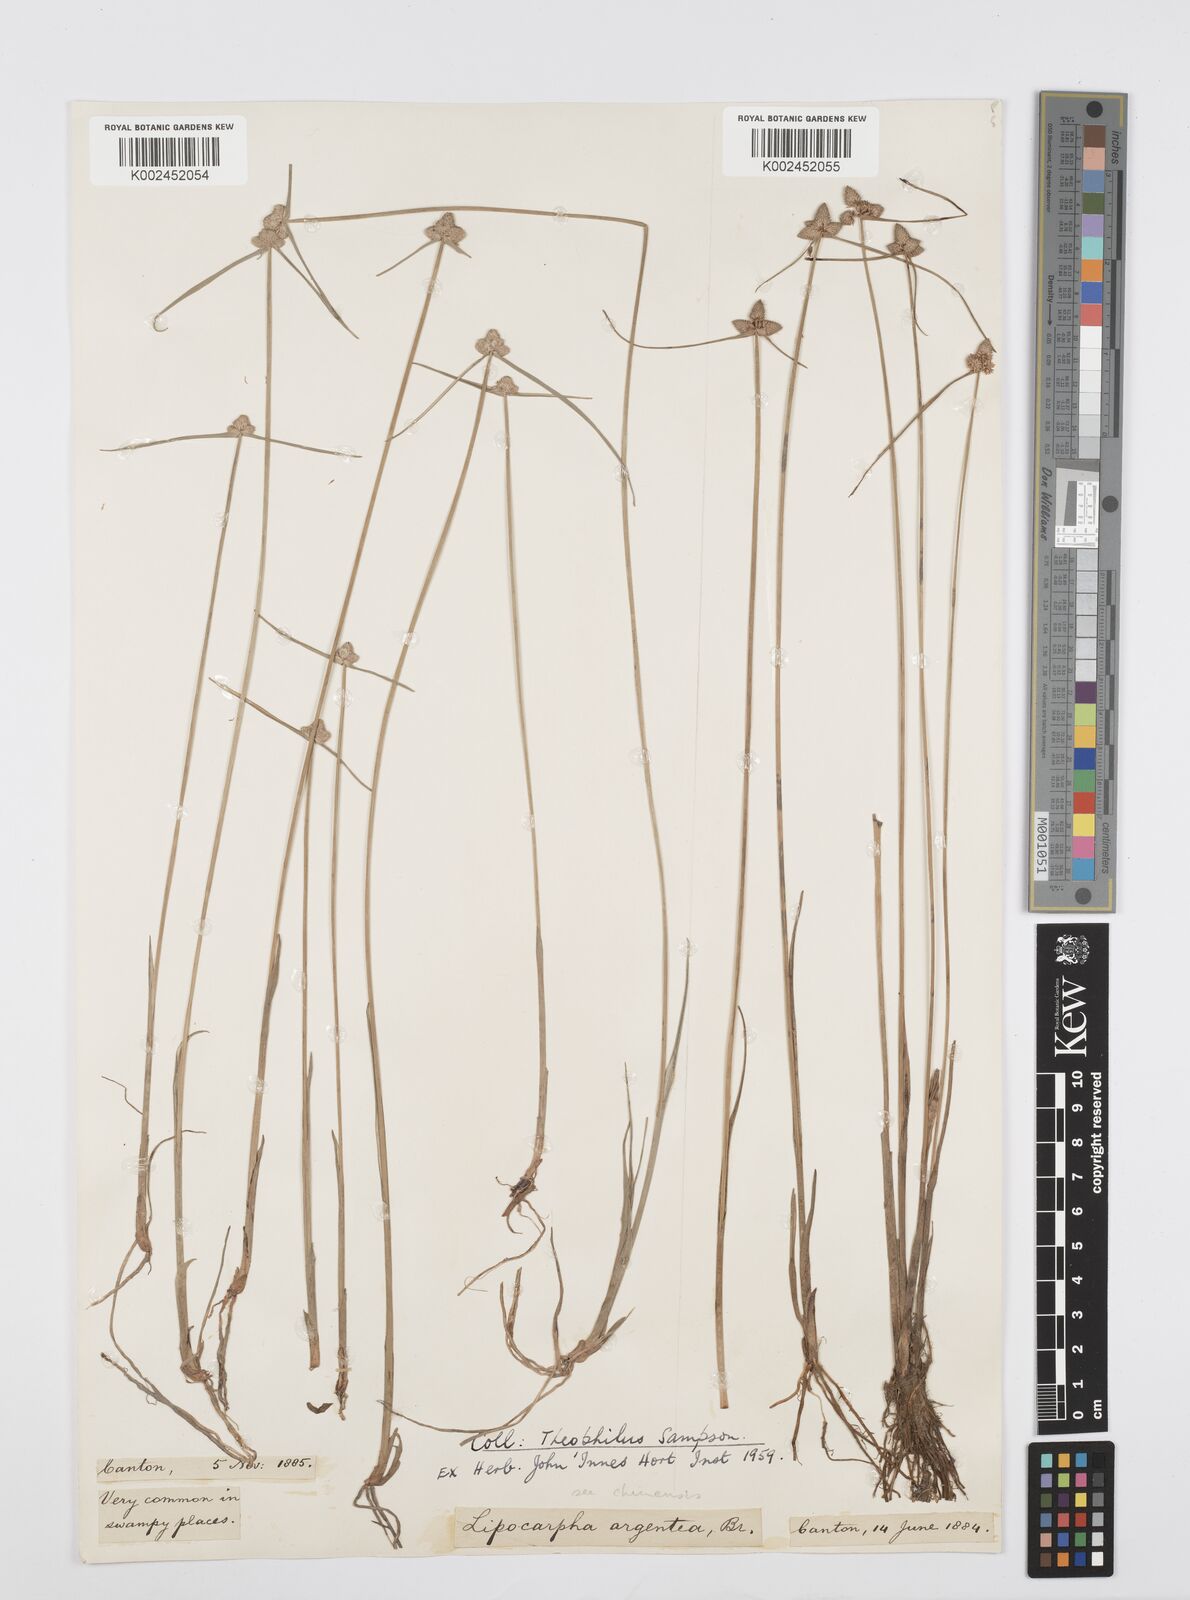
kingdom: Plantae
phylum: Tracheophyta
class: Liliopsida
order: Poales
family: Cyperaceae
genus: Cyperus
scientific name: Cyperus albescens
